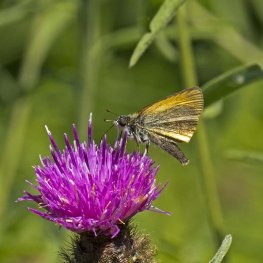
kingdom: Animalia
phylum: Arthropoda
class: Insecta
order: Lepidoptera
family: Hesperiidae
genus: Thymelicus
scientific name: Thymelicus lineola
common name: European Skipper
